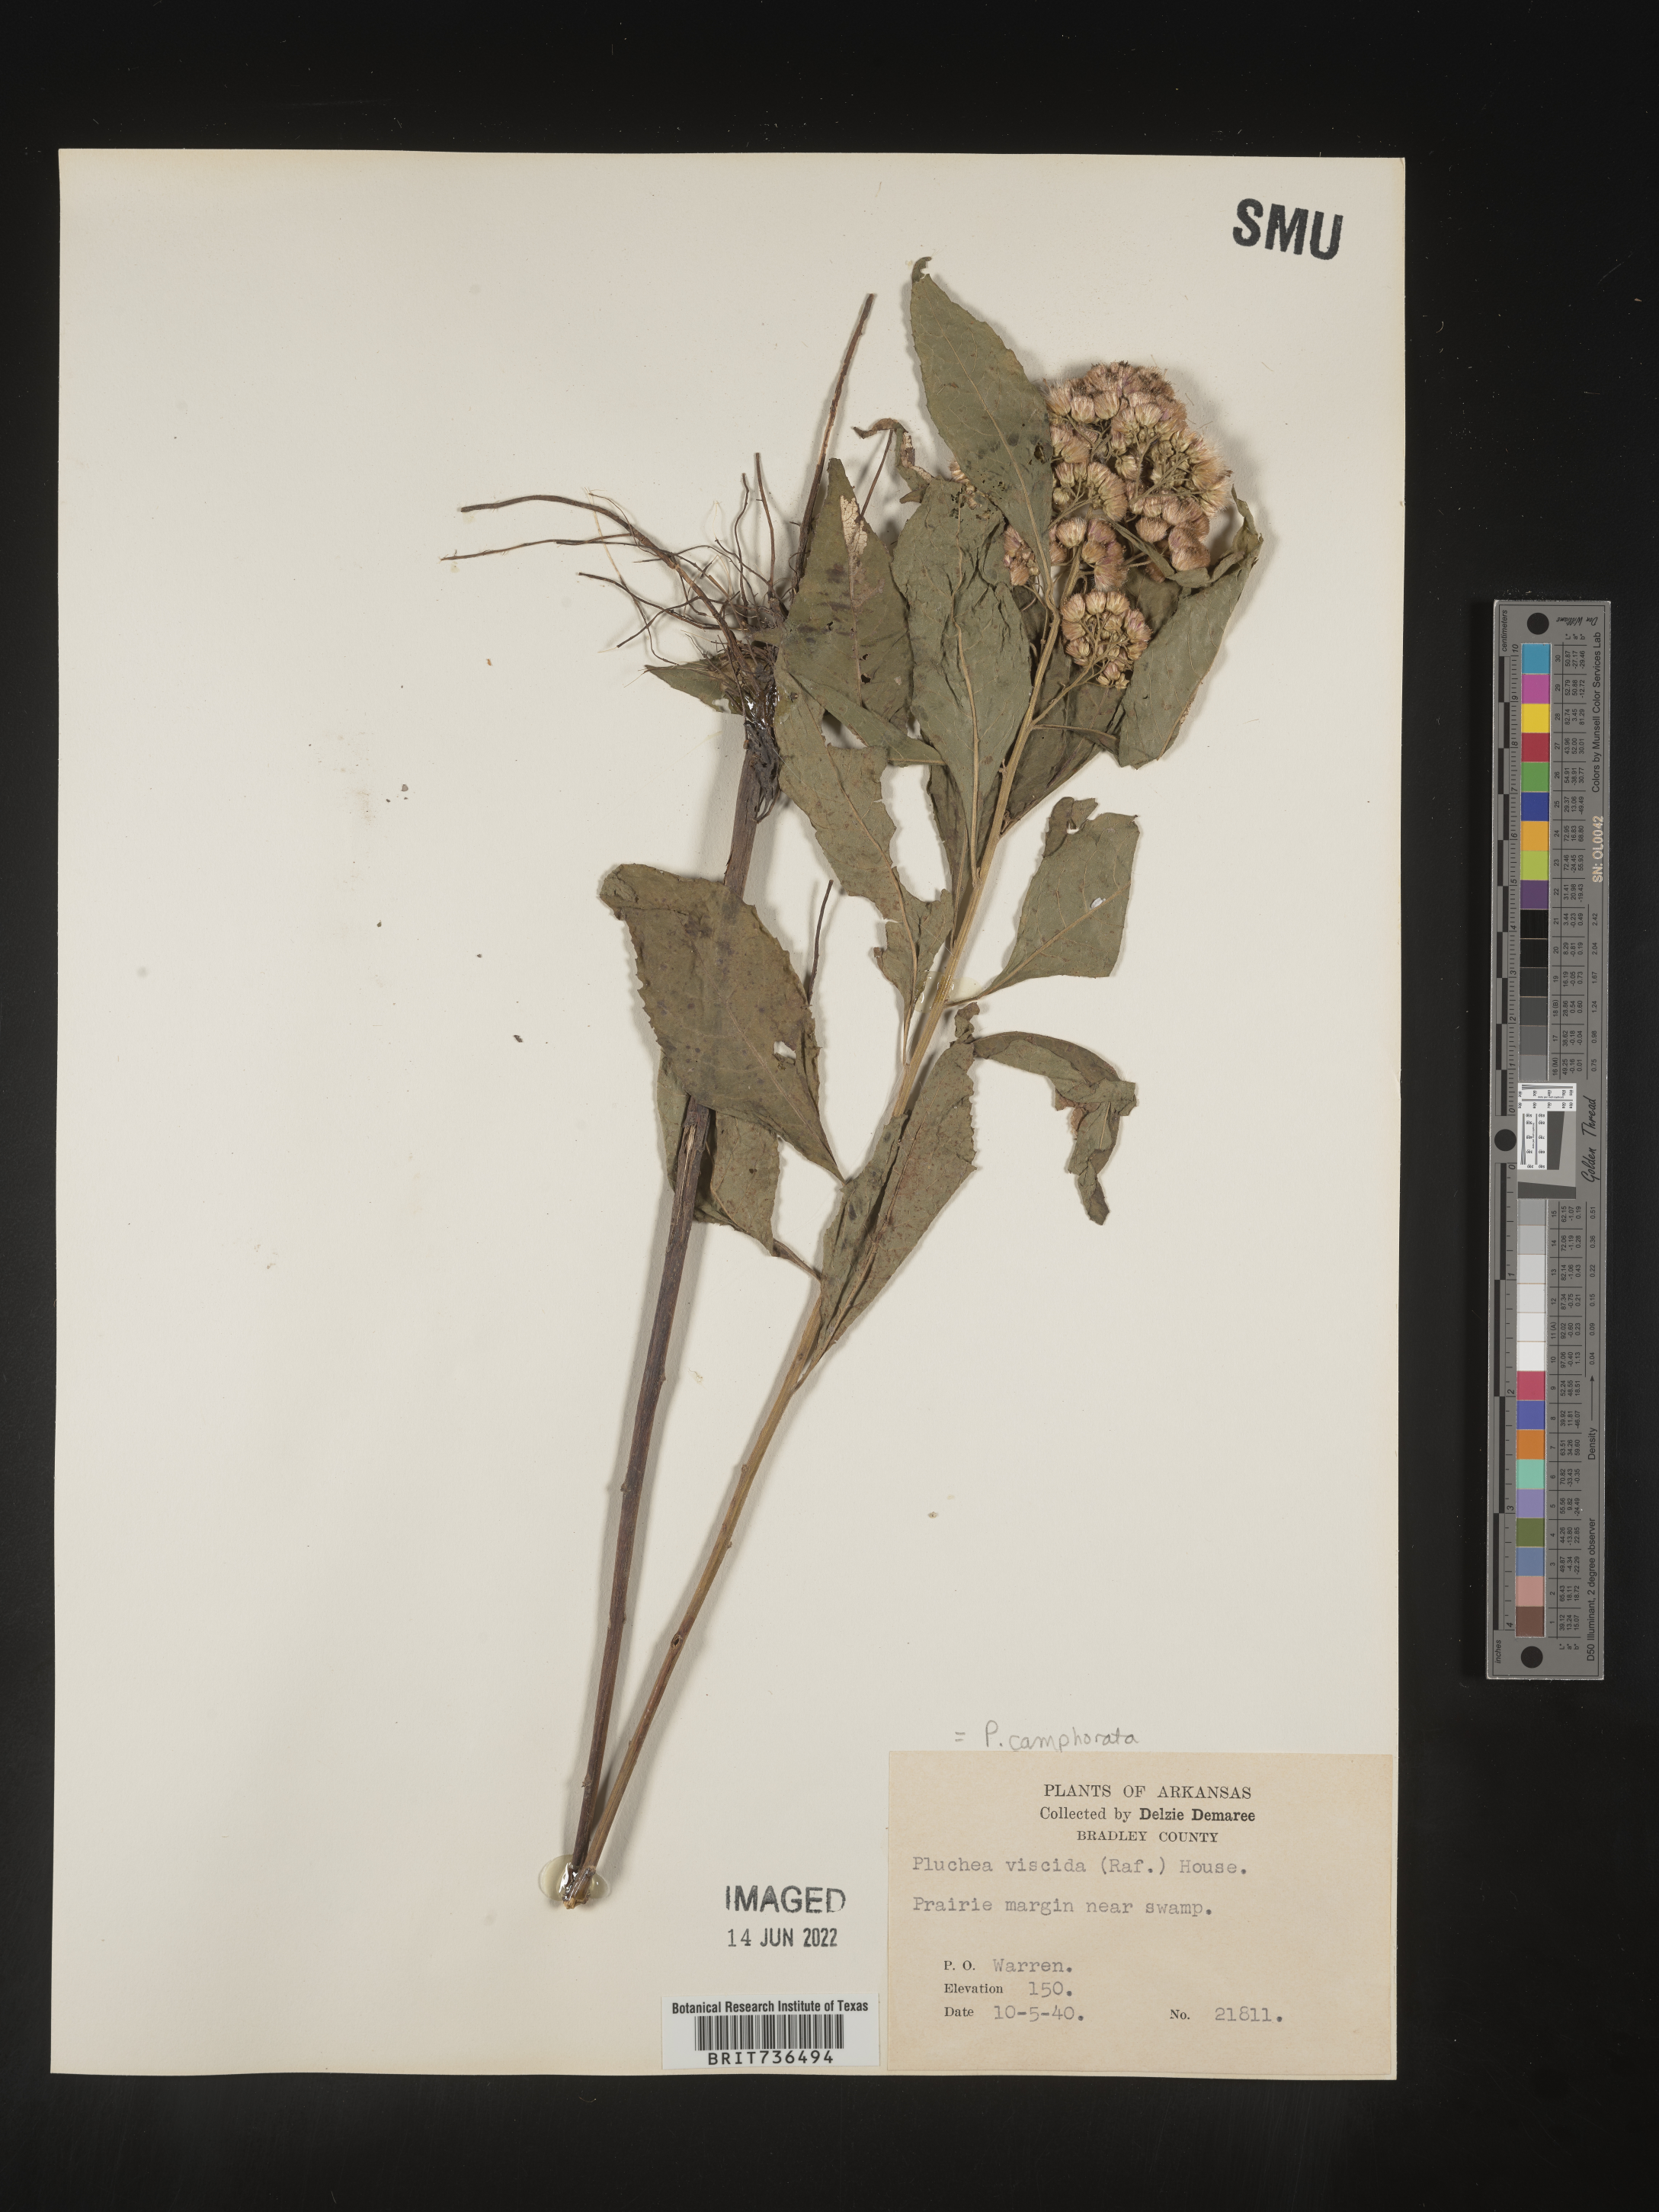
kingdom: Plantae
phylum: Tracheophyta
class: Magnoliopsida
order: Asterales
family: Asteraceae
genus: Pluchea
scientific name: Pluchea camphorata
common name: Camphor pluchea
